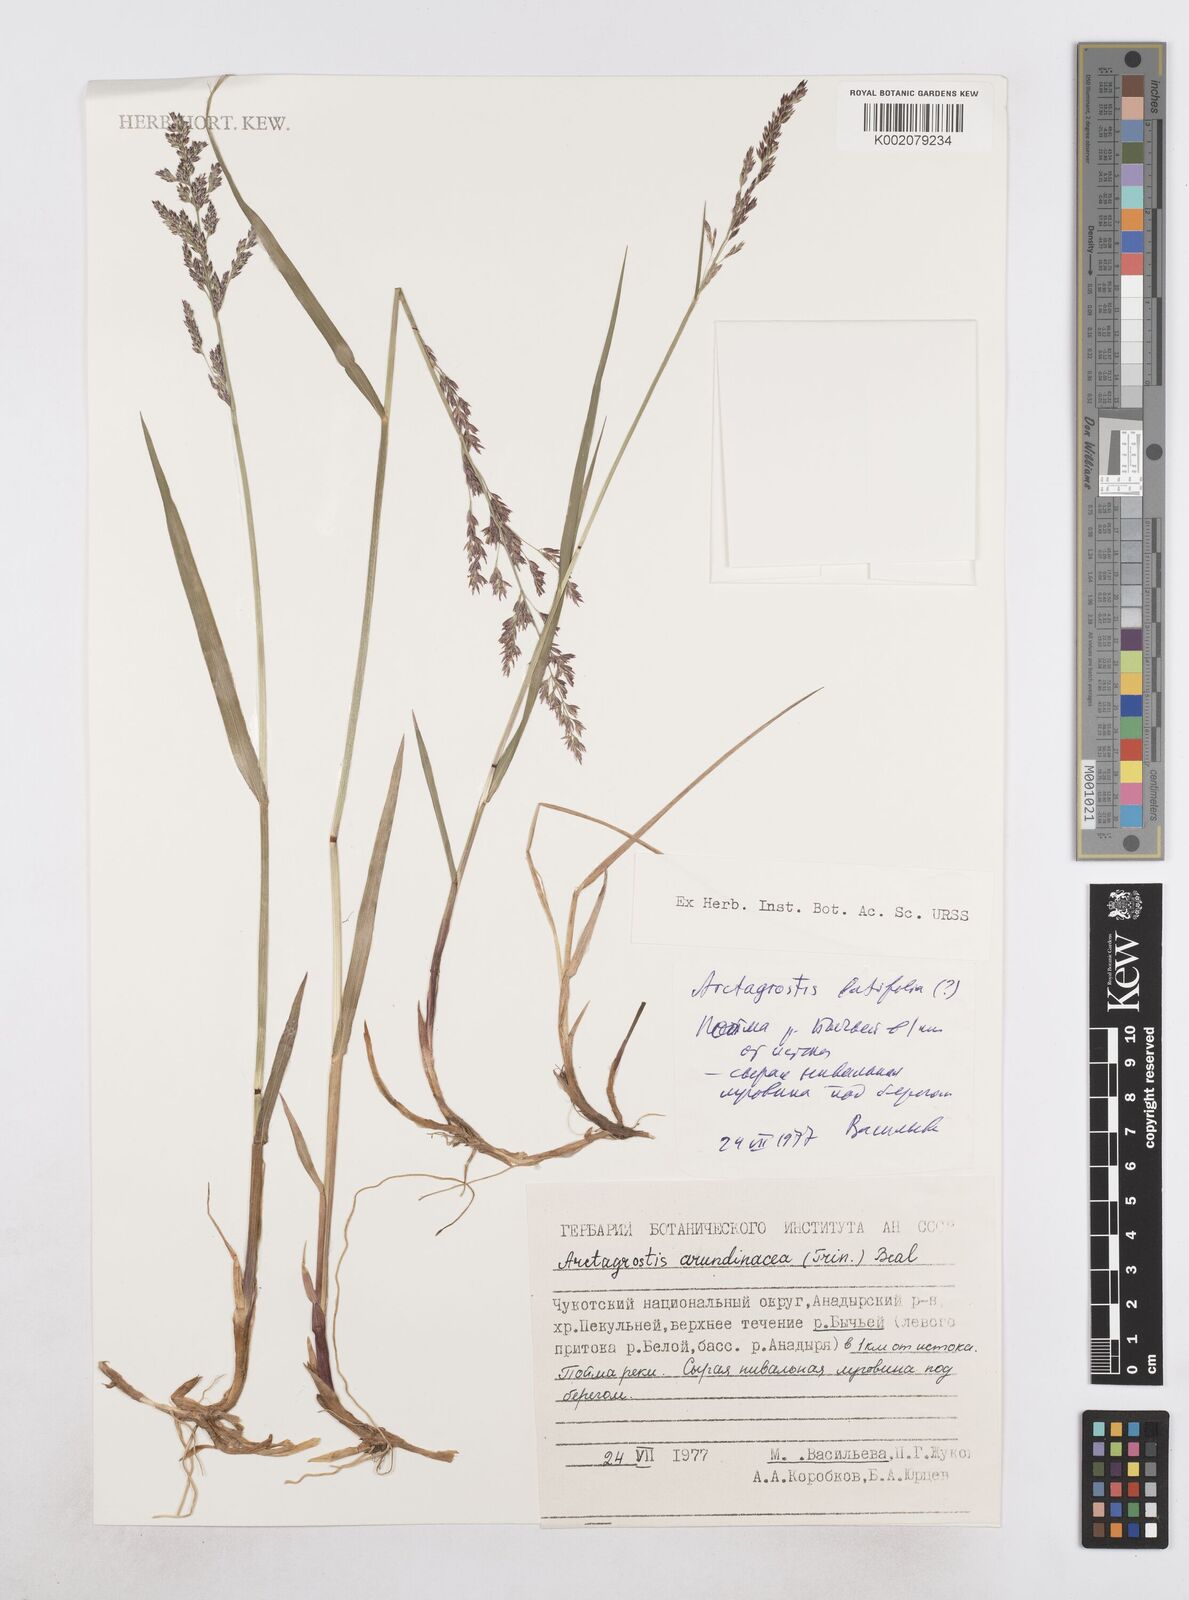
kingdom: Plantae
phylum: Tracheophyta
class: Liliopsida
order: Poales
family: Poaceae
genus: Arctagrostis
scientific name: Arctagrostis latifolia
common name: Arctic grass
